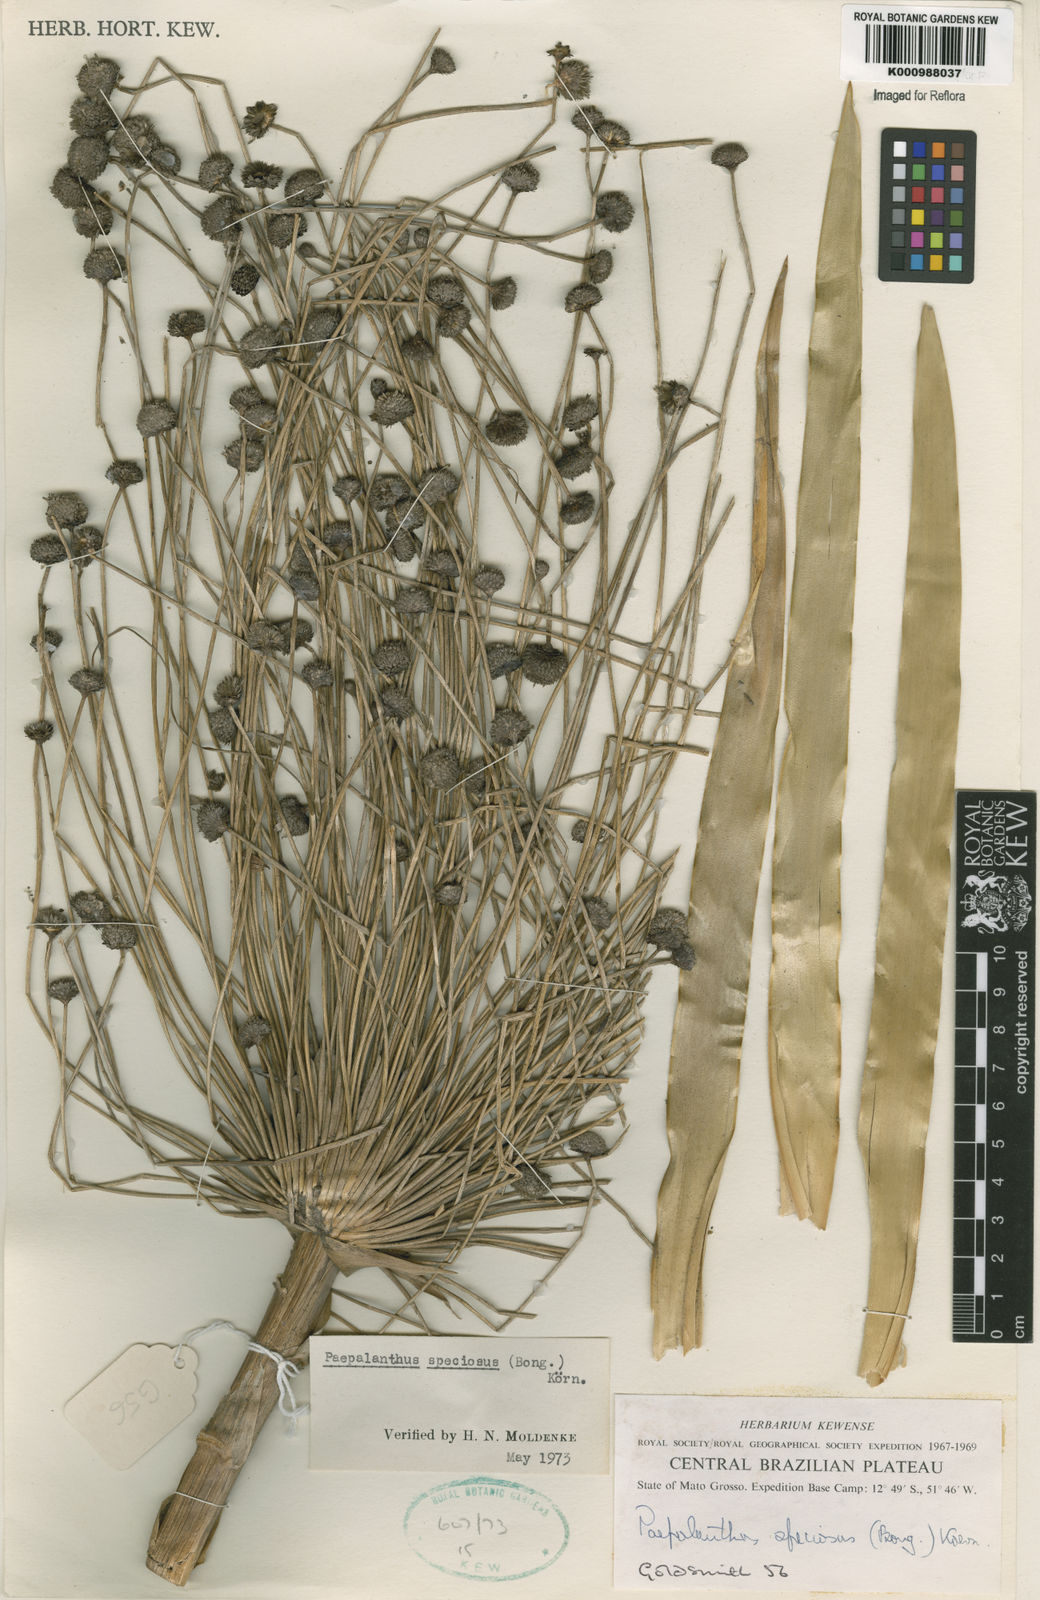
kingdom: Plantae
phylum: Tracheophyta
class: Liliopsida
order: Poales
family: Eriocaulaceae
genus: Paepalanthus
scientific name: Paepalanthus
